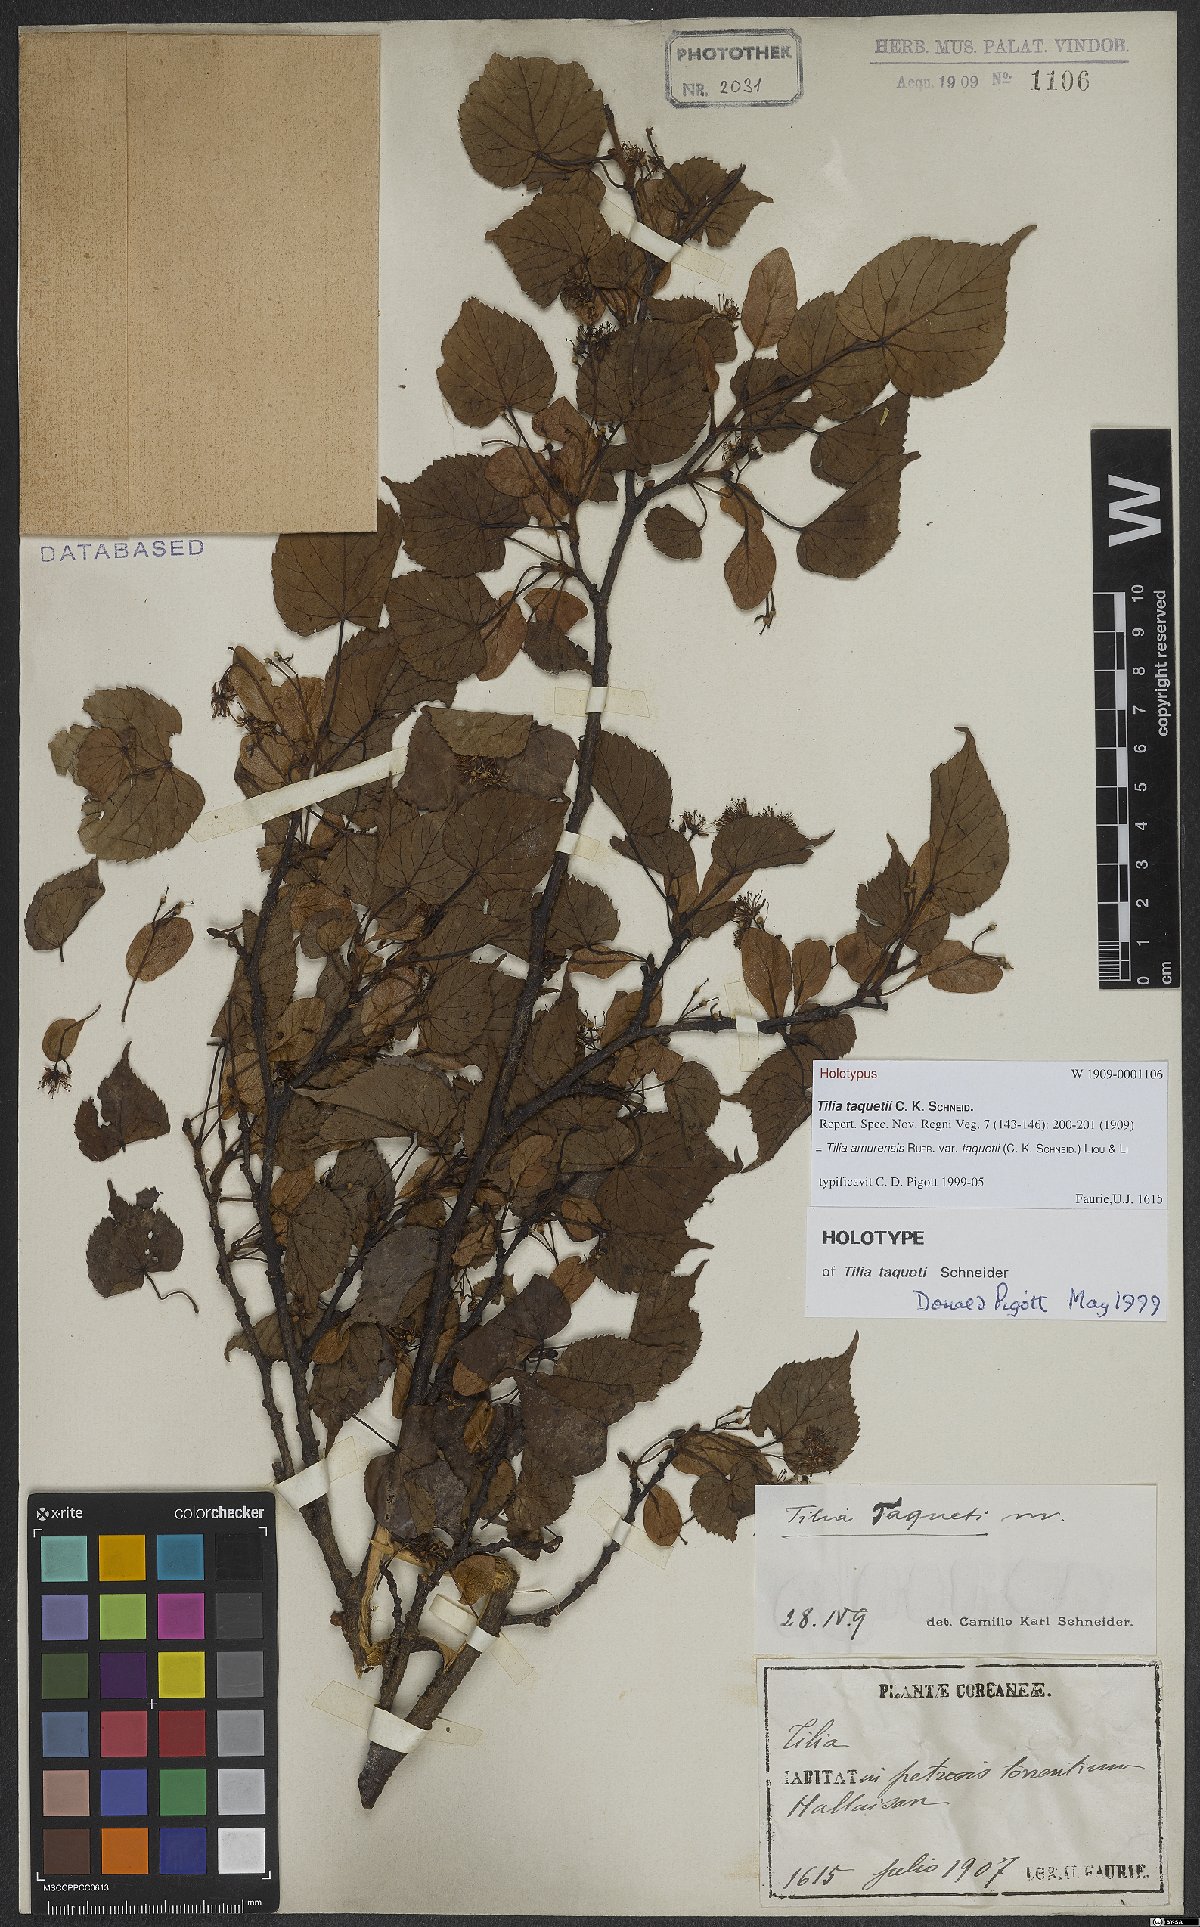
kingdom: Plantae
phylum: Tracheophyta
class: Magnoliopsida
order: Malvales
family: Malvaceae
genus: Tilia
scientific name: Tilia amurensis
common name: Amur lime
